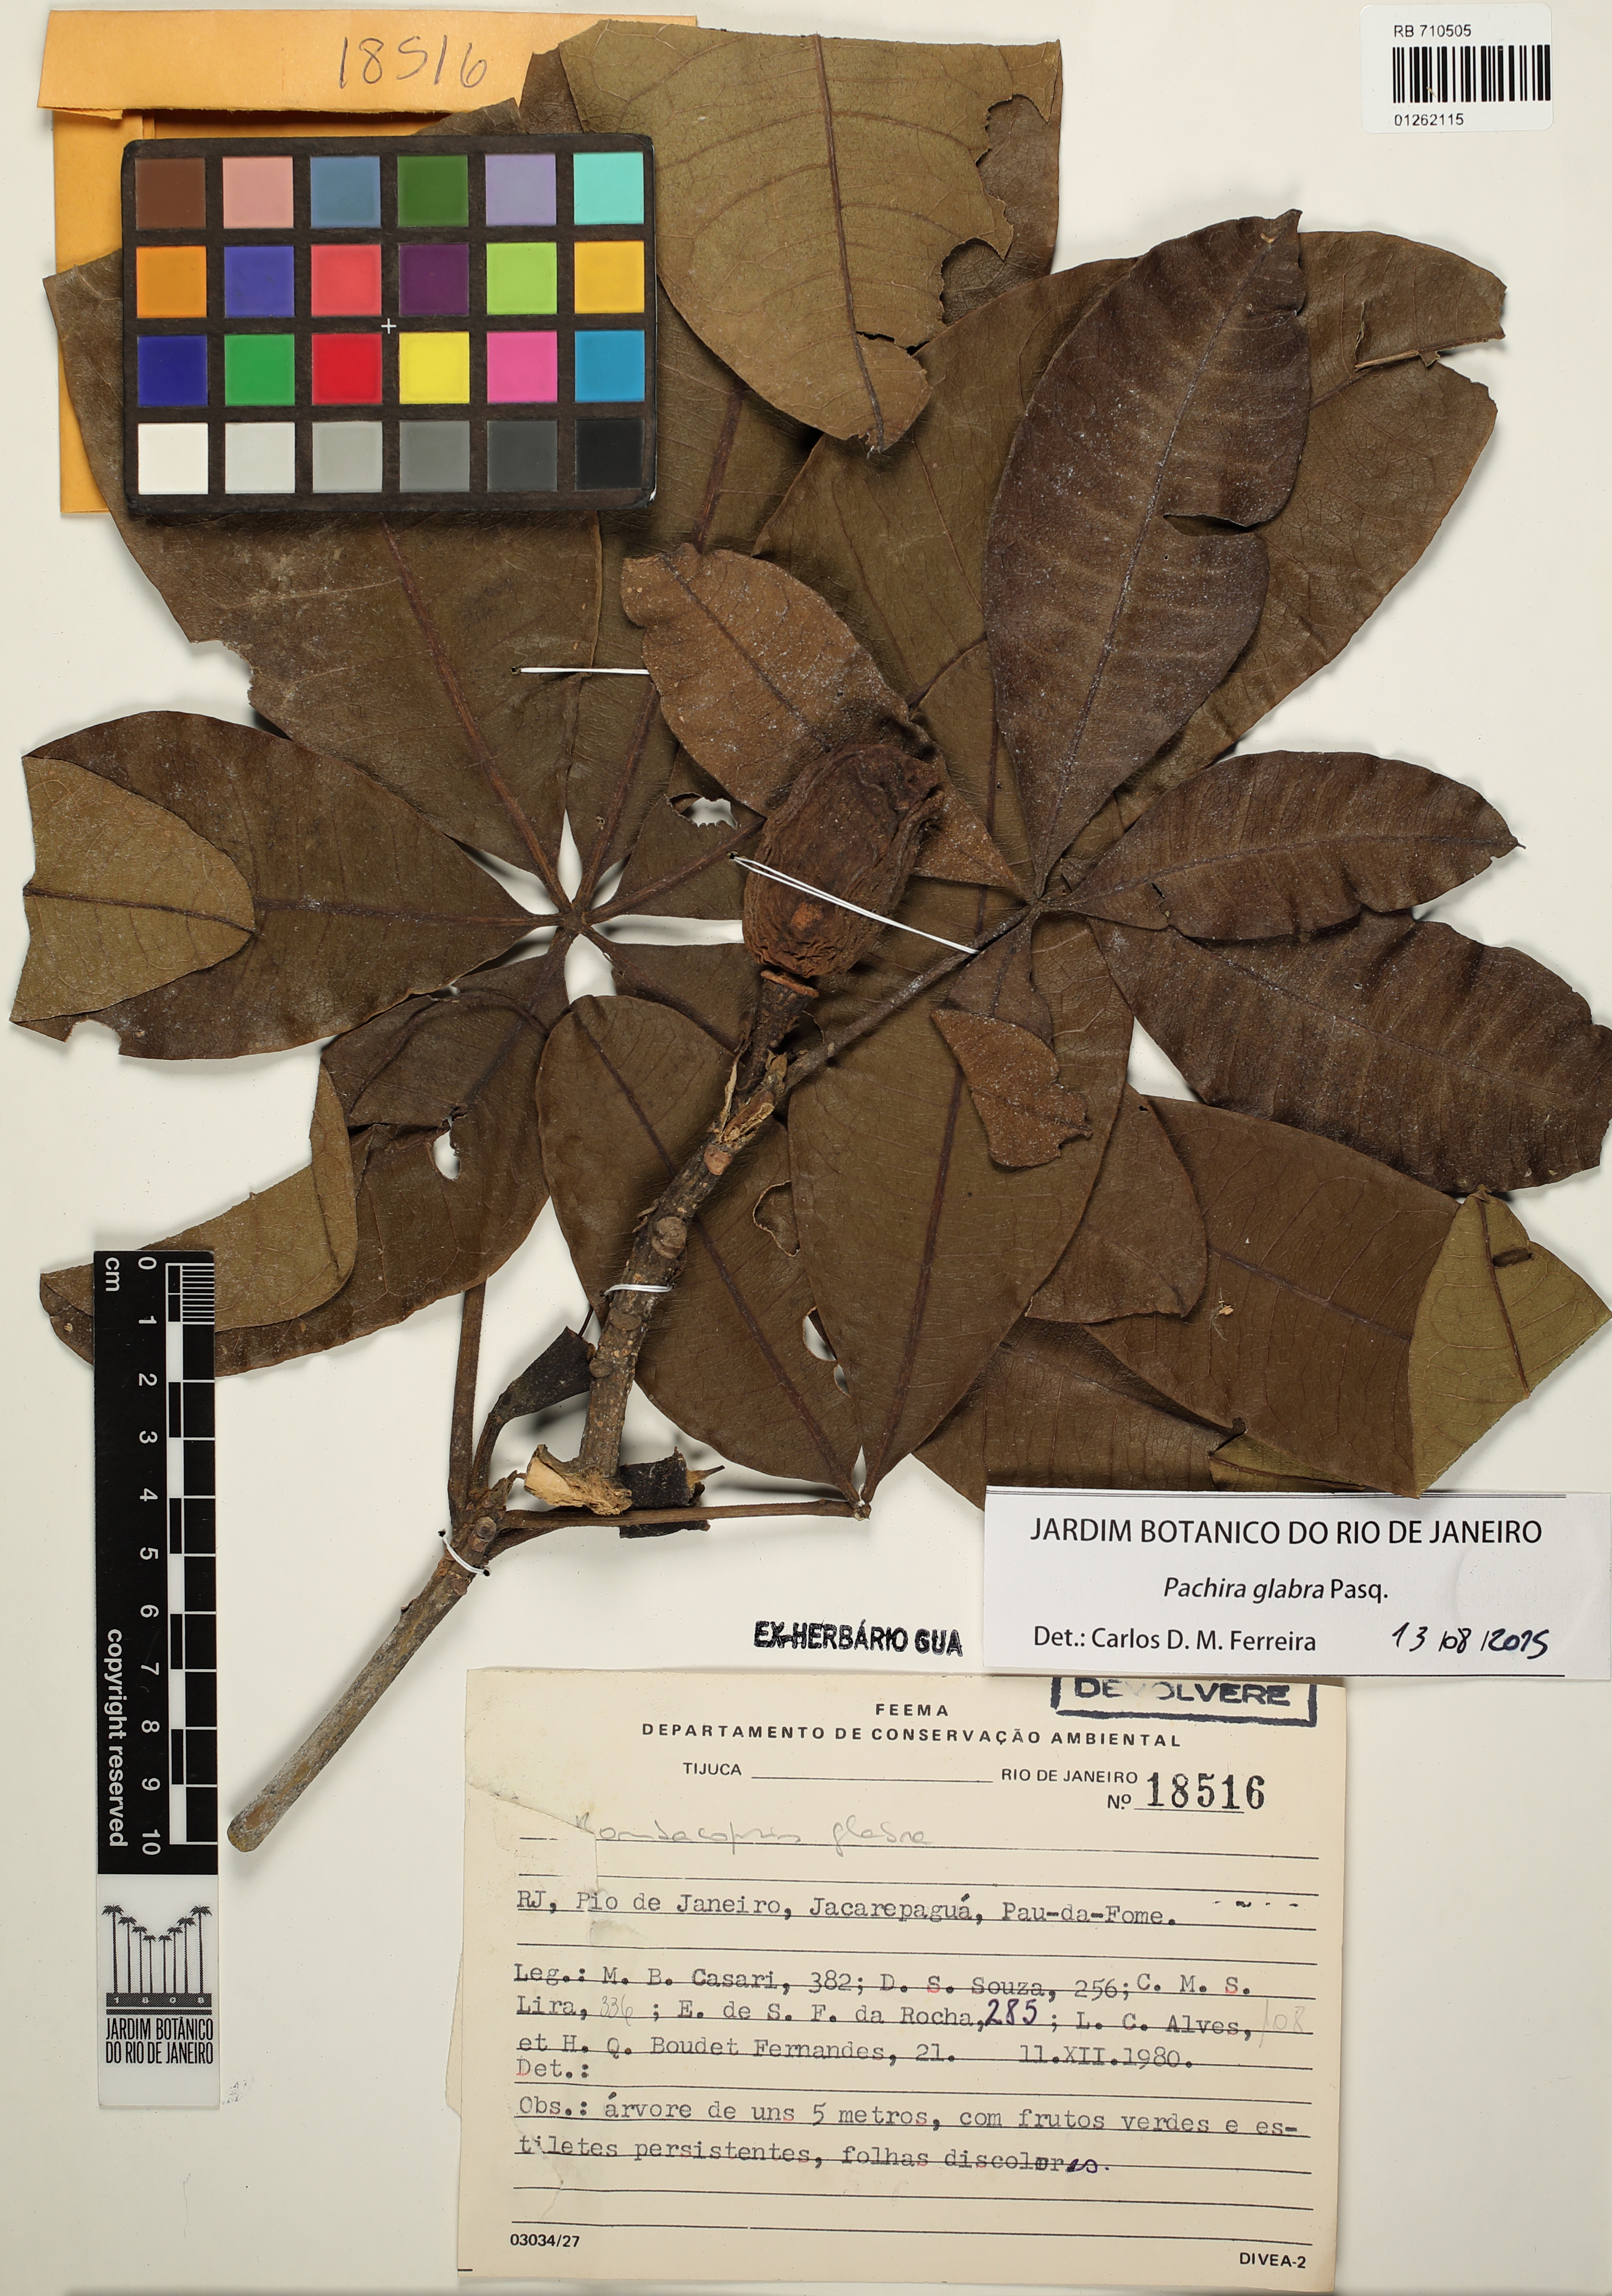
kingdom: Plantae
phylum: Tracheophyta
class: Magnoliopsida
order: Malvales
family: Malvaceae
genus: Pachira
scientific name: Pachira glabra
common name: Moneytree
